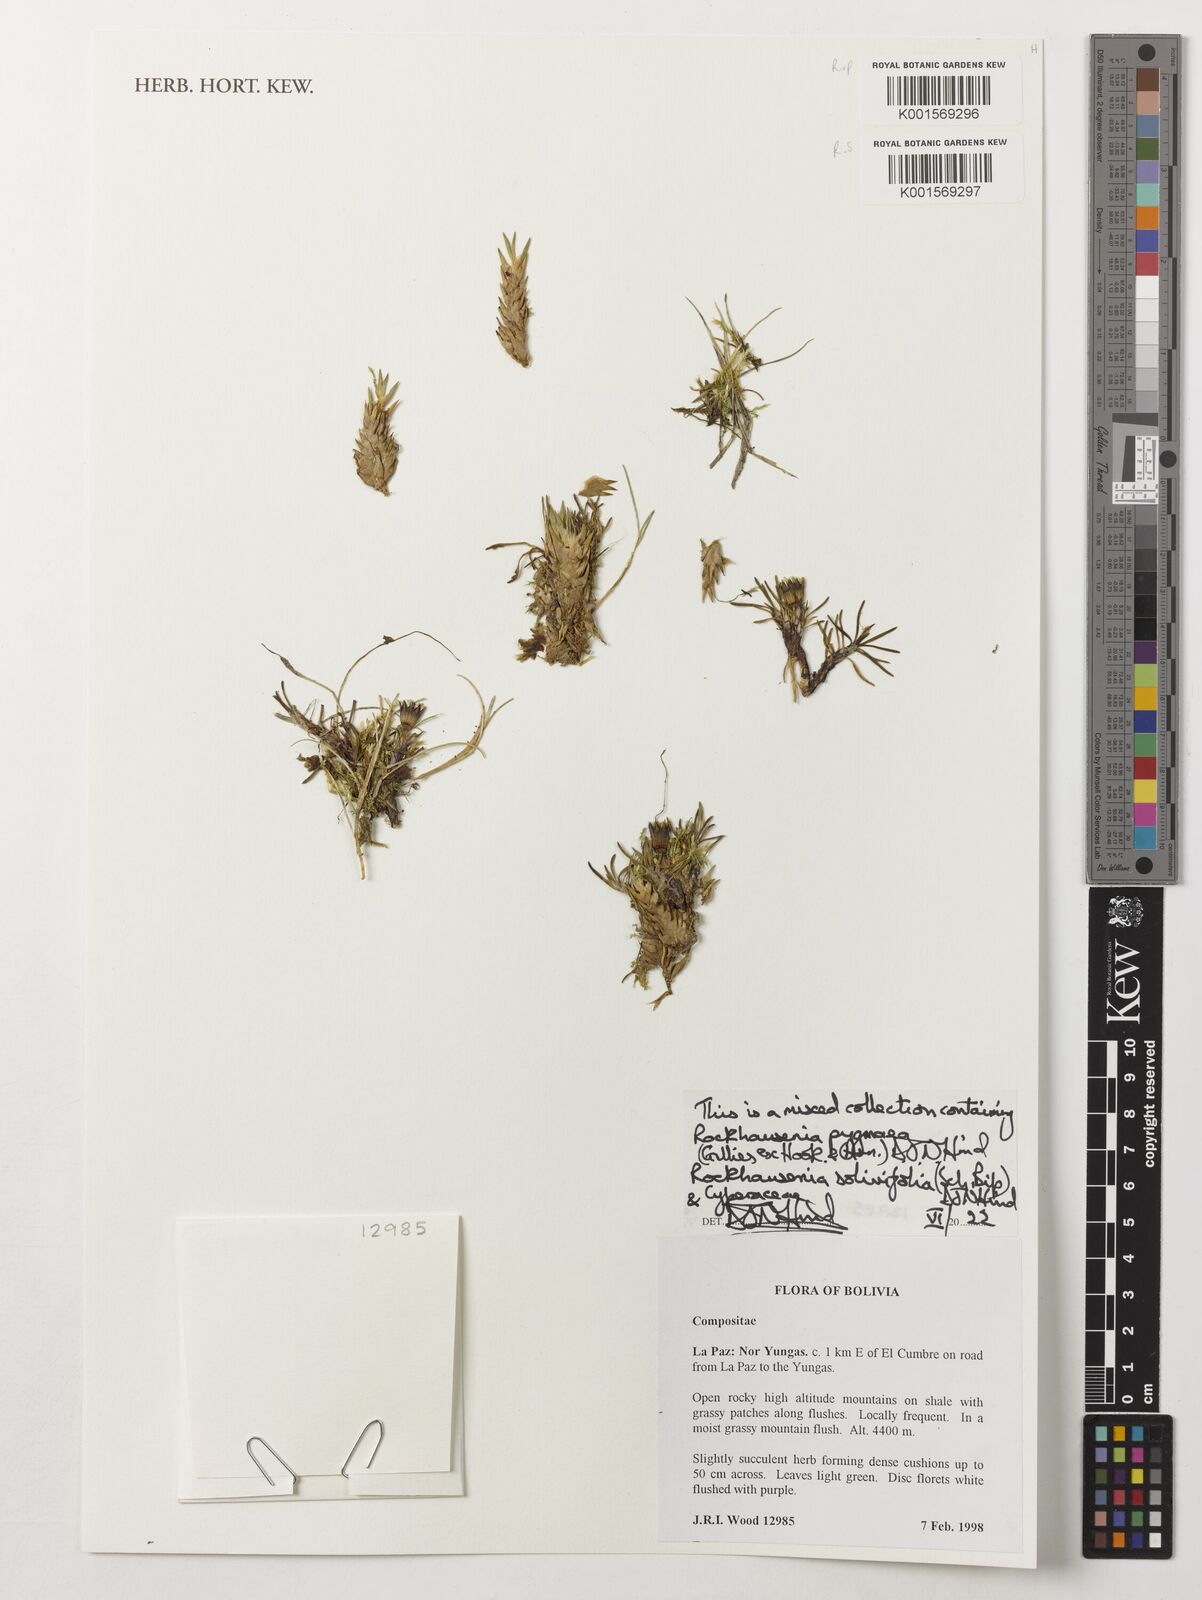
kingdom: Plantae
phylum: Tracheophyta
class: Magnoliopsida
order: Asterales
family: Asteraceae
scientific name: Asteraceae
